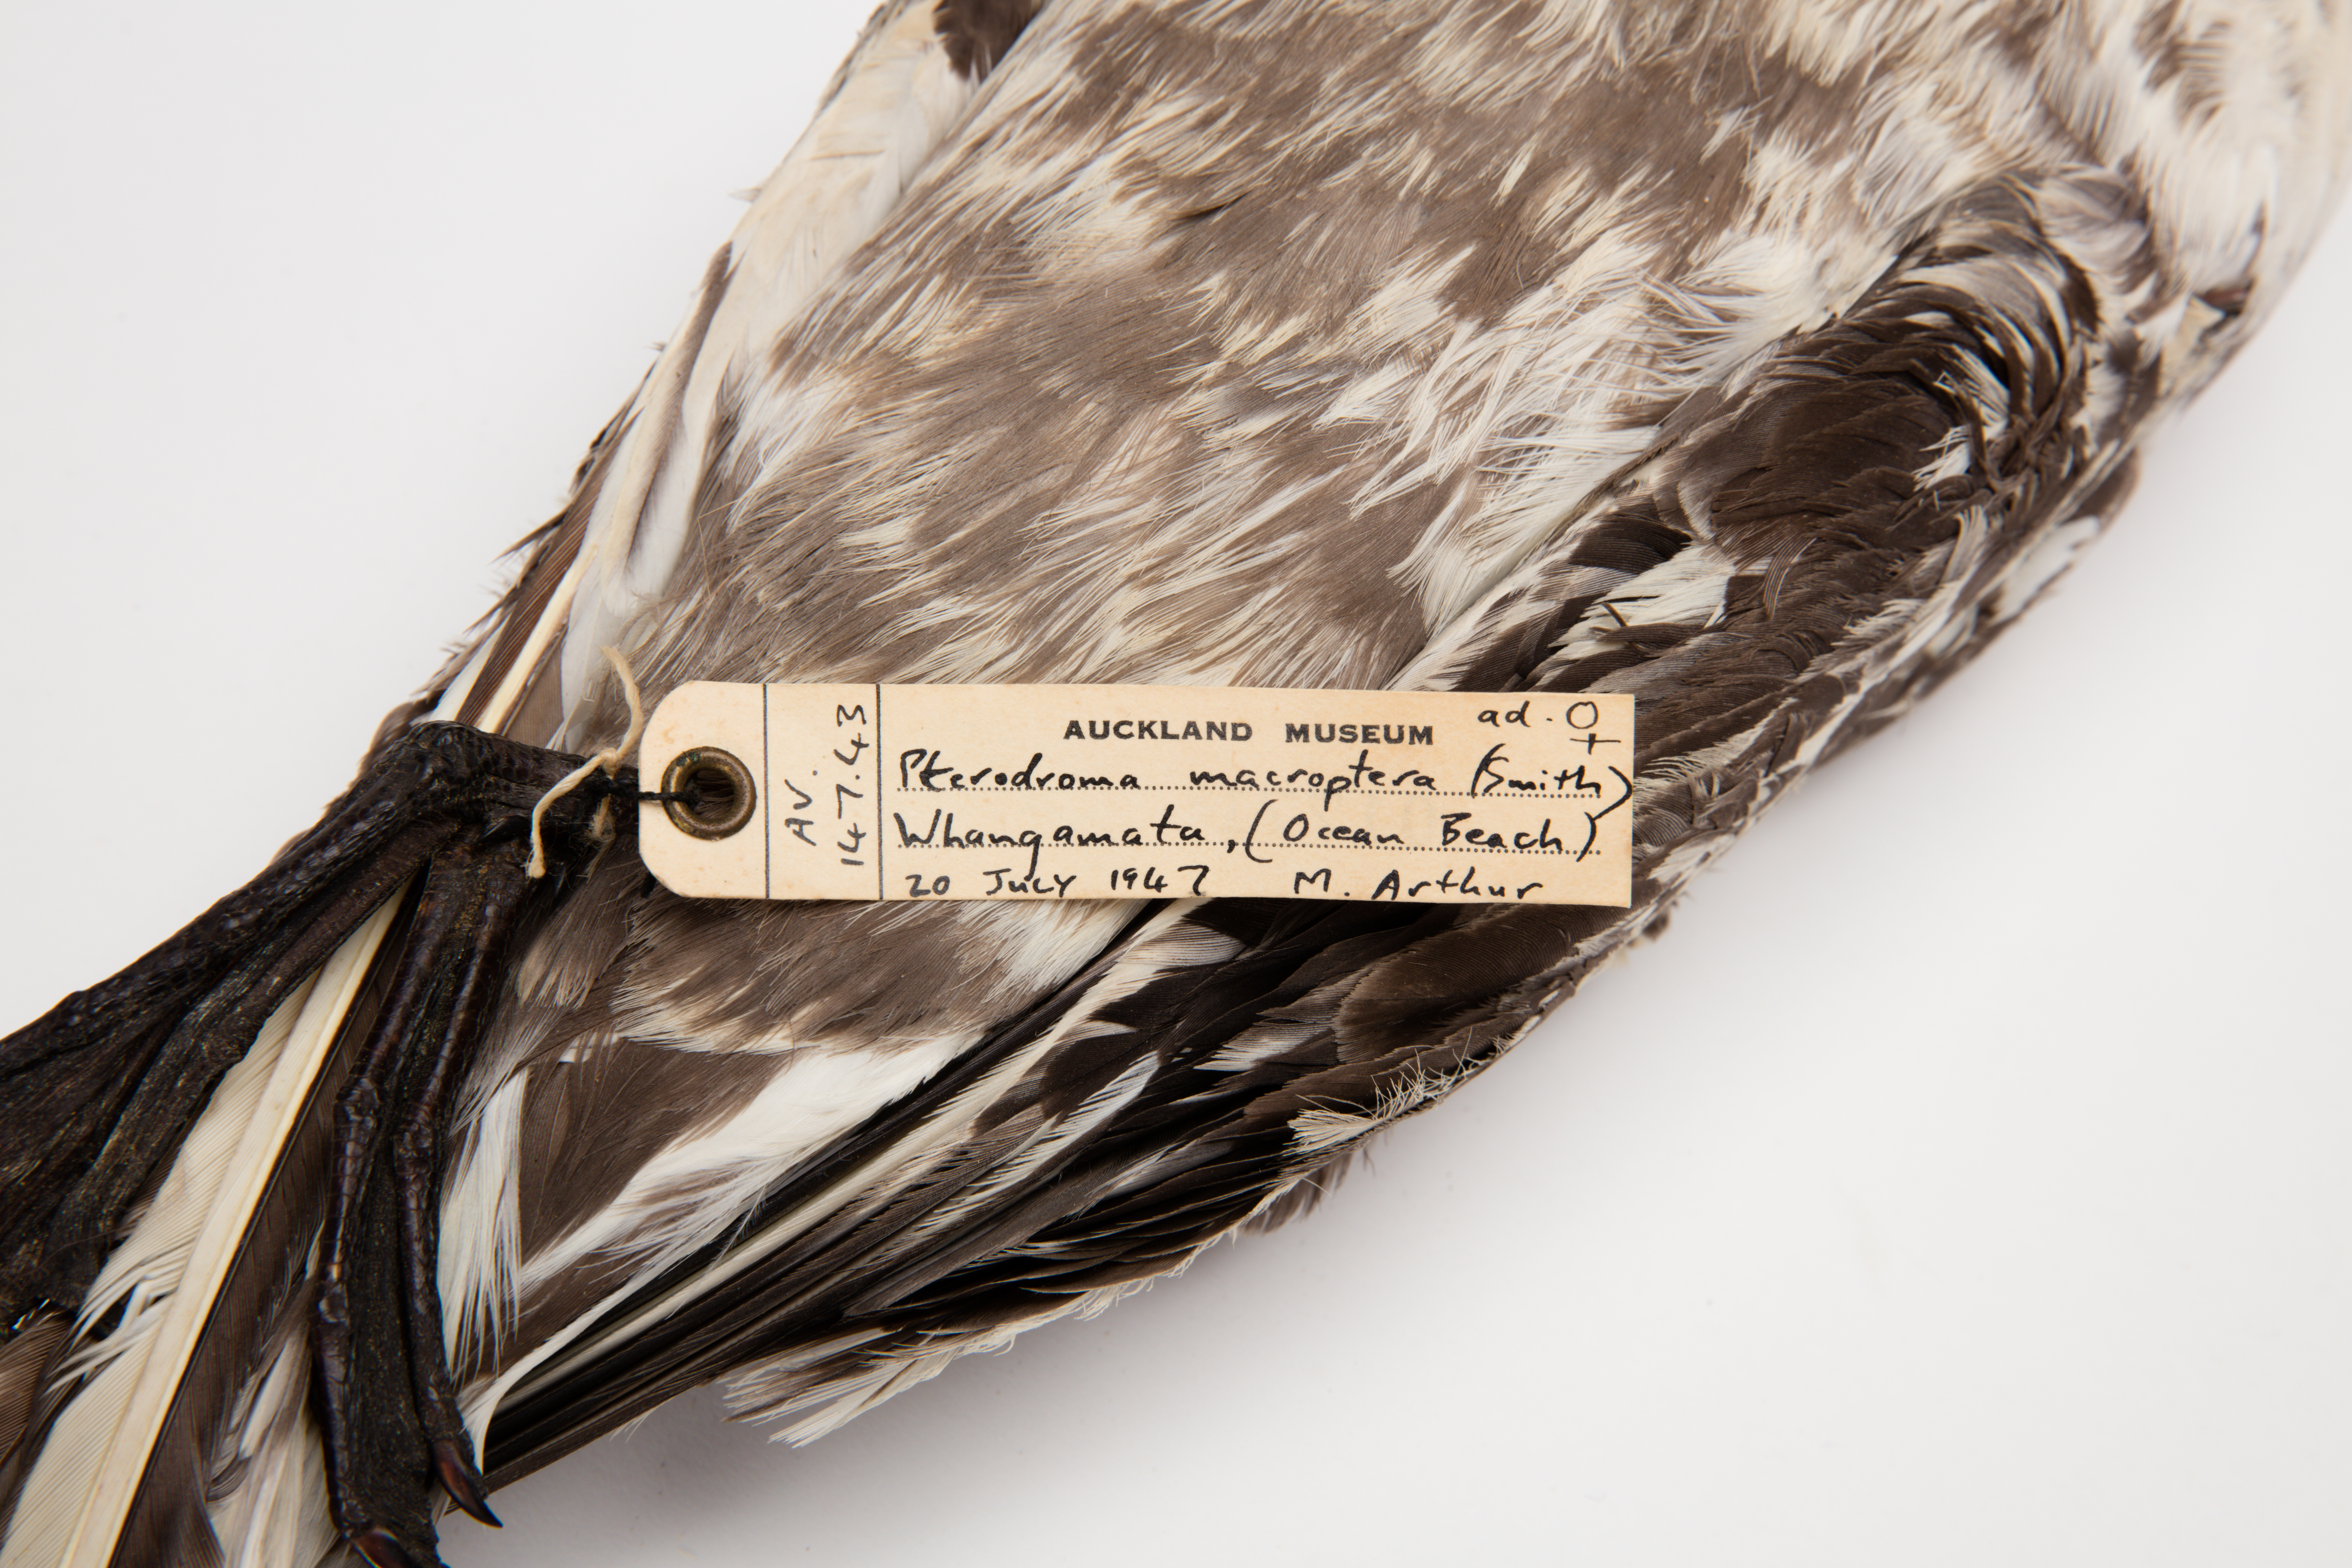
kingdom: Animalia
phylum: Chordata
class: Aves
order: Procellariiformes
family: Procellariidae
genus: Pterodroma
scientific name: Pterodroma macroptera
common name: Great-winged petrel
